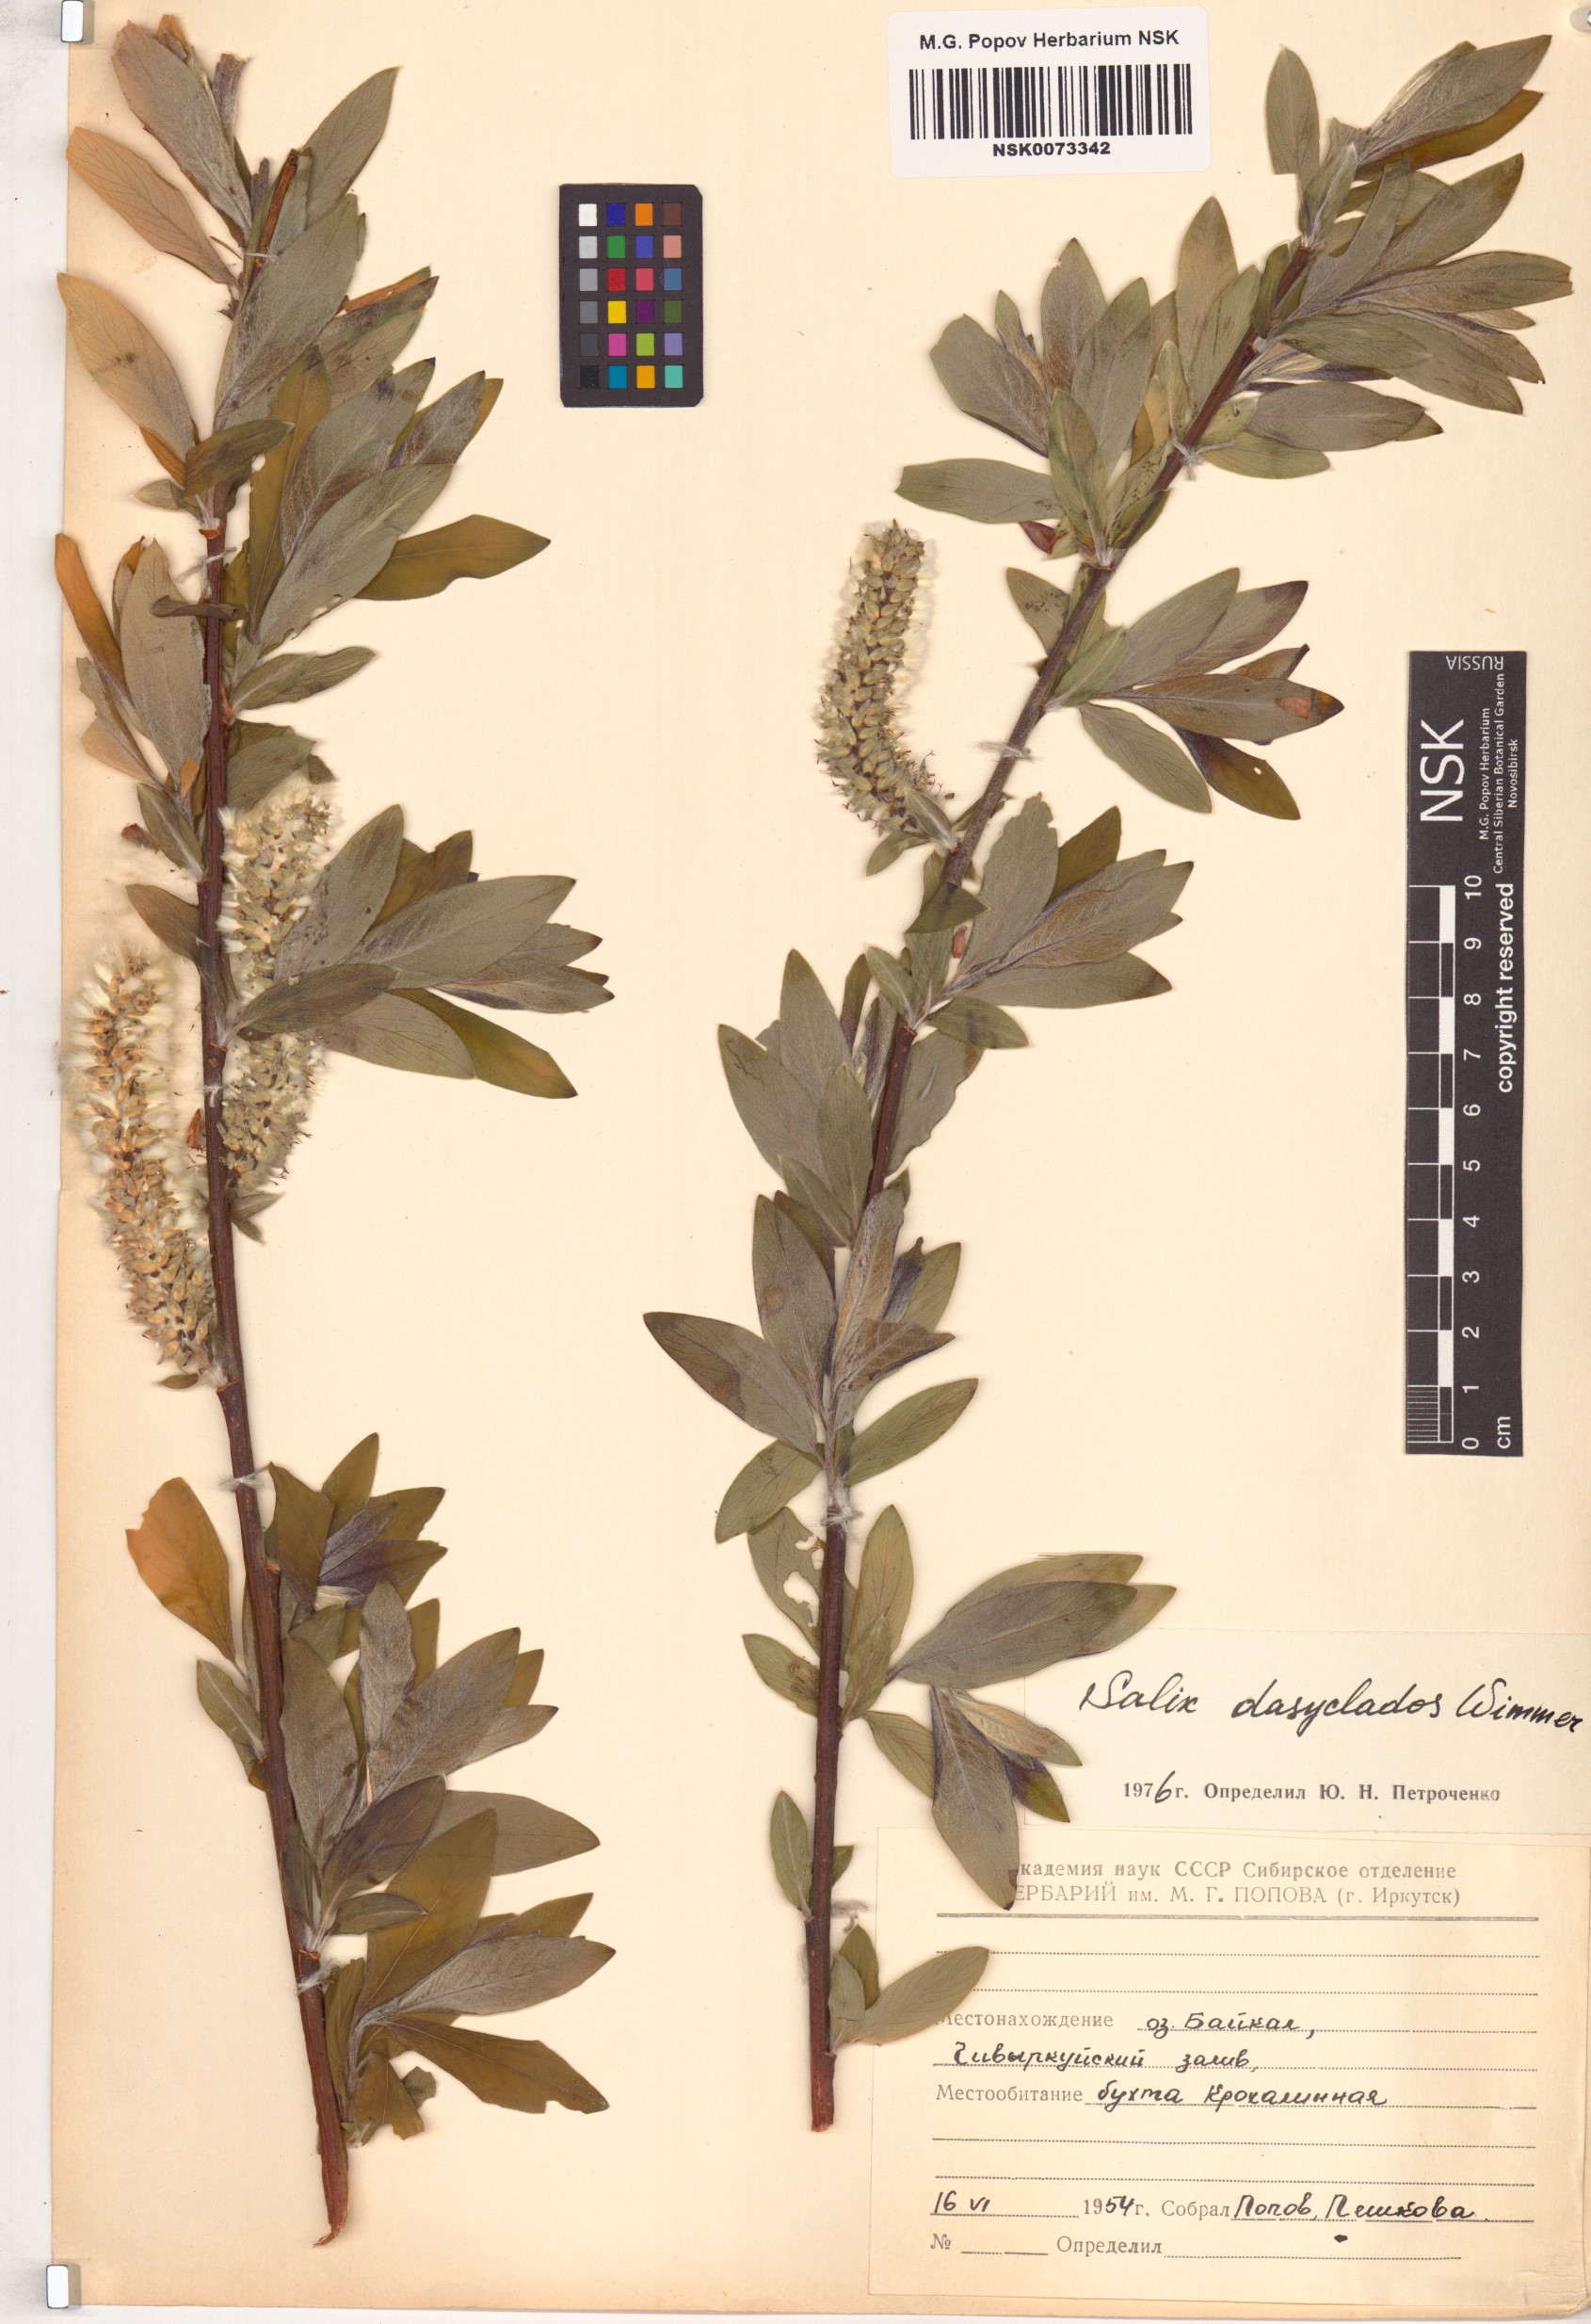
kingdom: Plantae
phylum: Tracheophyta
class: Magnoliopsida
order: Malpighiales
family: Salicaceae
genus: Salix
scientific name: Salix gmelinii
